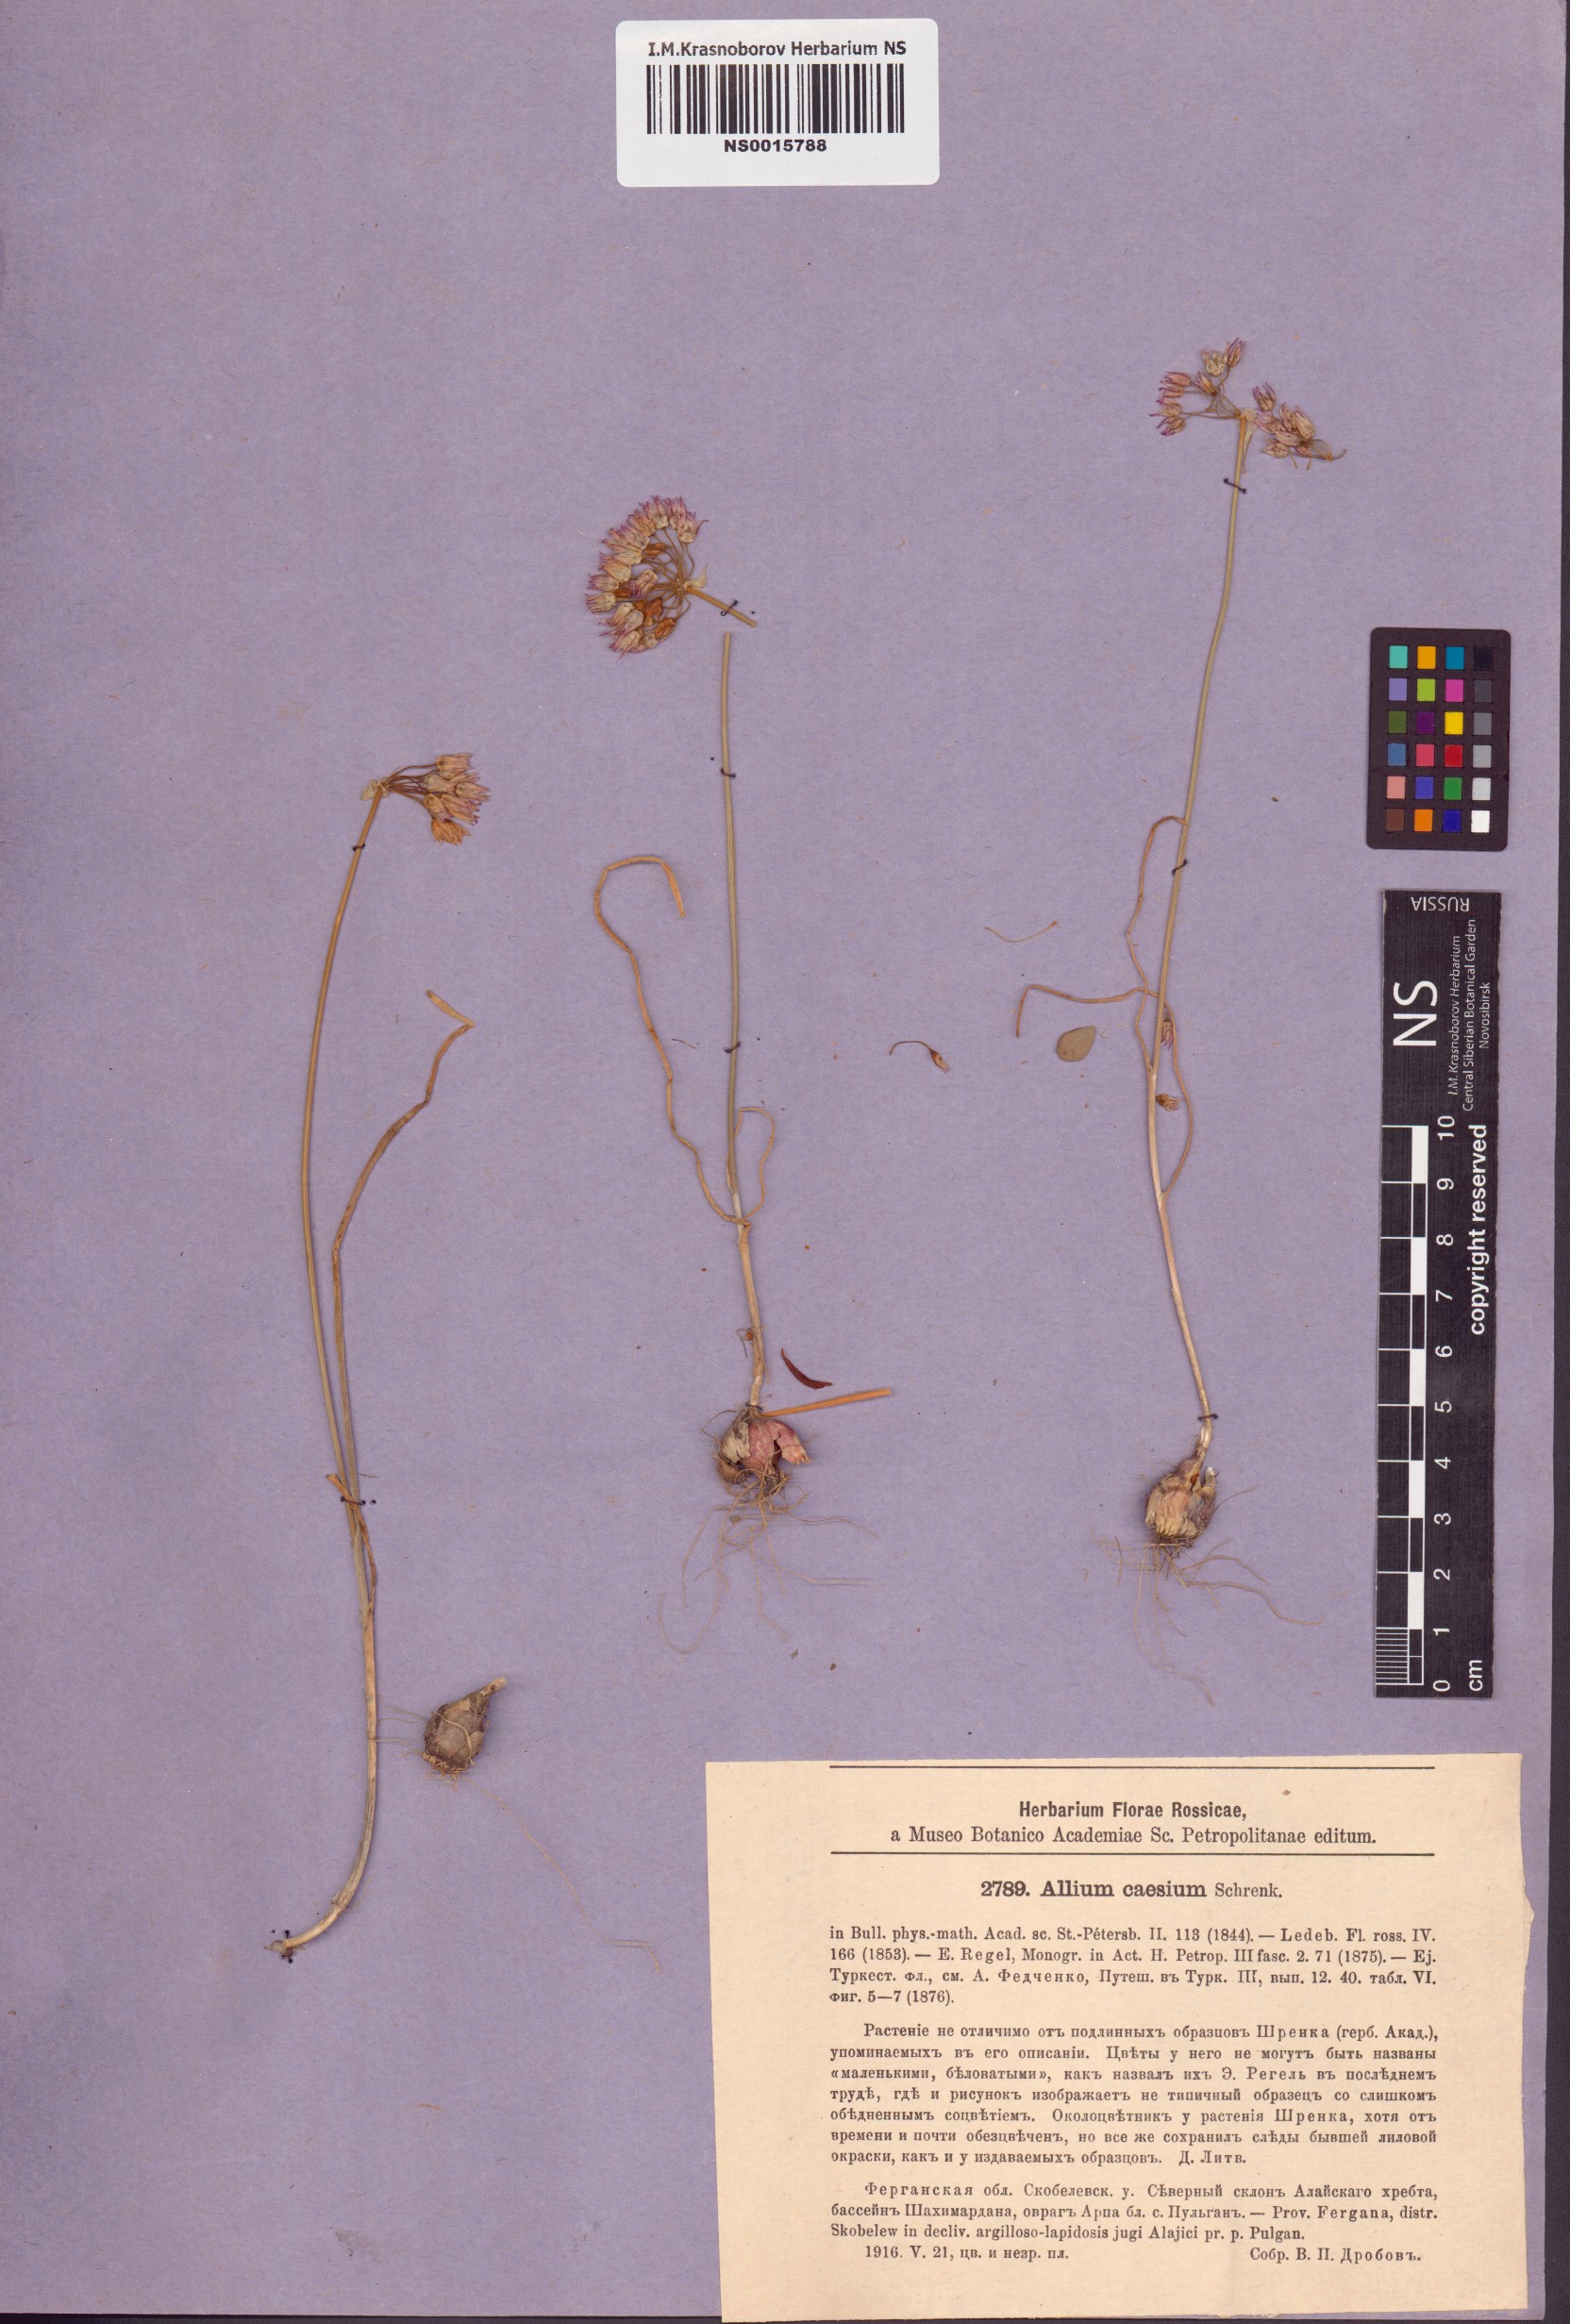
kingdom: Plantae
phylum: Tracheophyta
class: Liliopsida
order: Asparagales
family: Amaryllidaceae
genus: Allium
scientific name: Allium caesium
